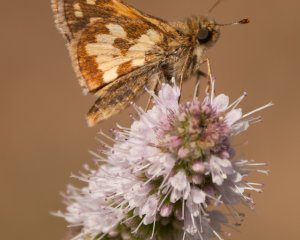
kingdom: Animalia
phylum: Arthropoda
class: Insecta
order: Lepidoptera
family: Hesperiidae
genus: Polites
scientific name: Polites coras
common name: Peck's Skipper
